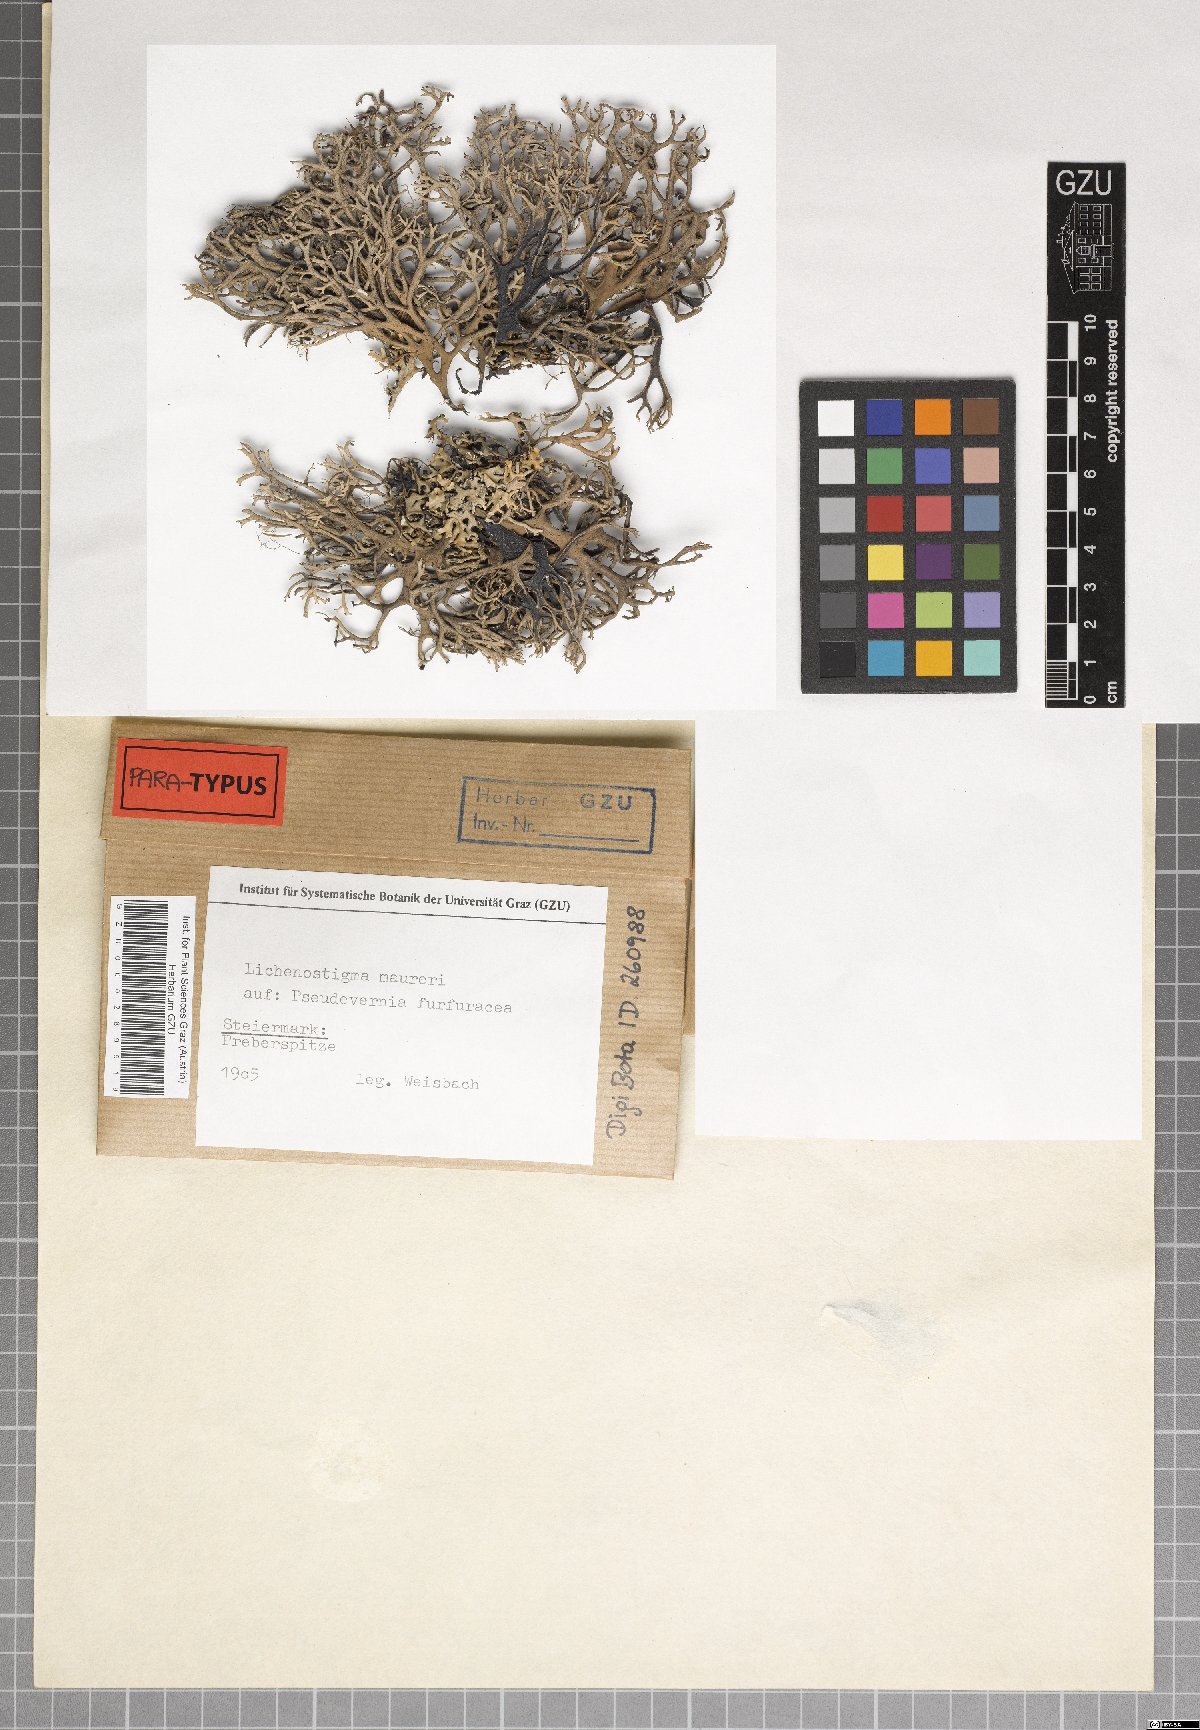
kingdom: Fungi
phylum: Ascomycota
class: Arthoniomycetes
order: Lichenostigmatales
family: Phaeococcomycetaceae
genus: Lichenostigma
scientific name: Lichenostigma maureri
